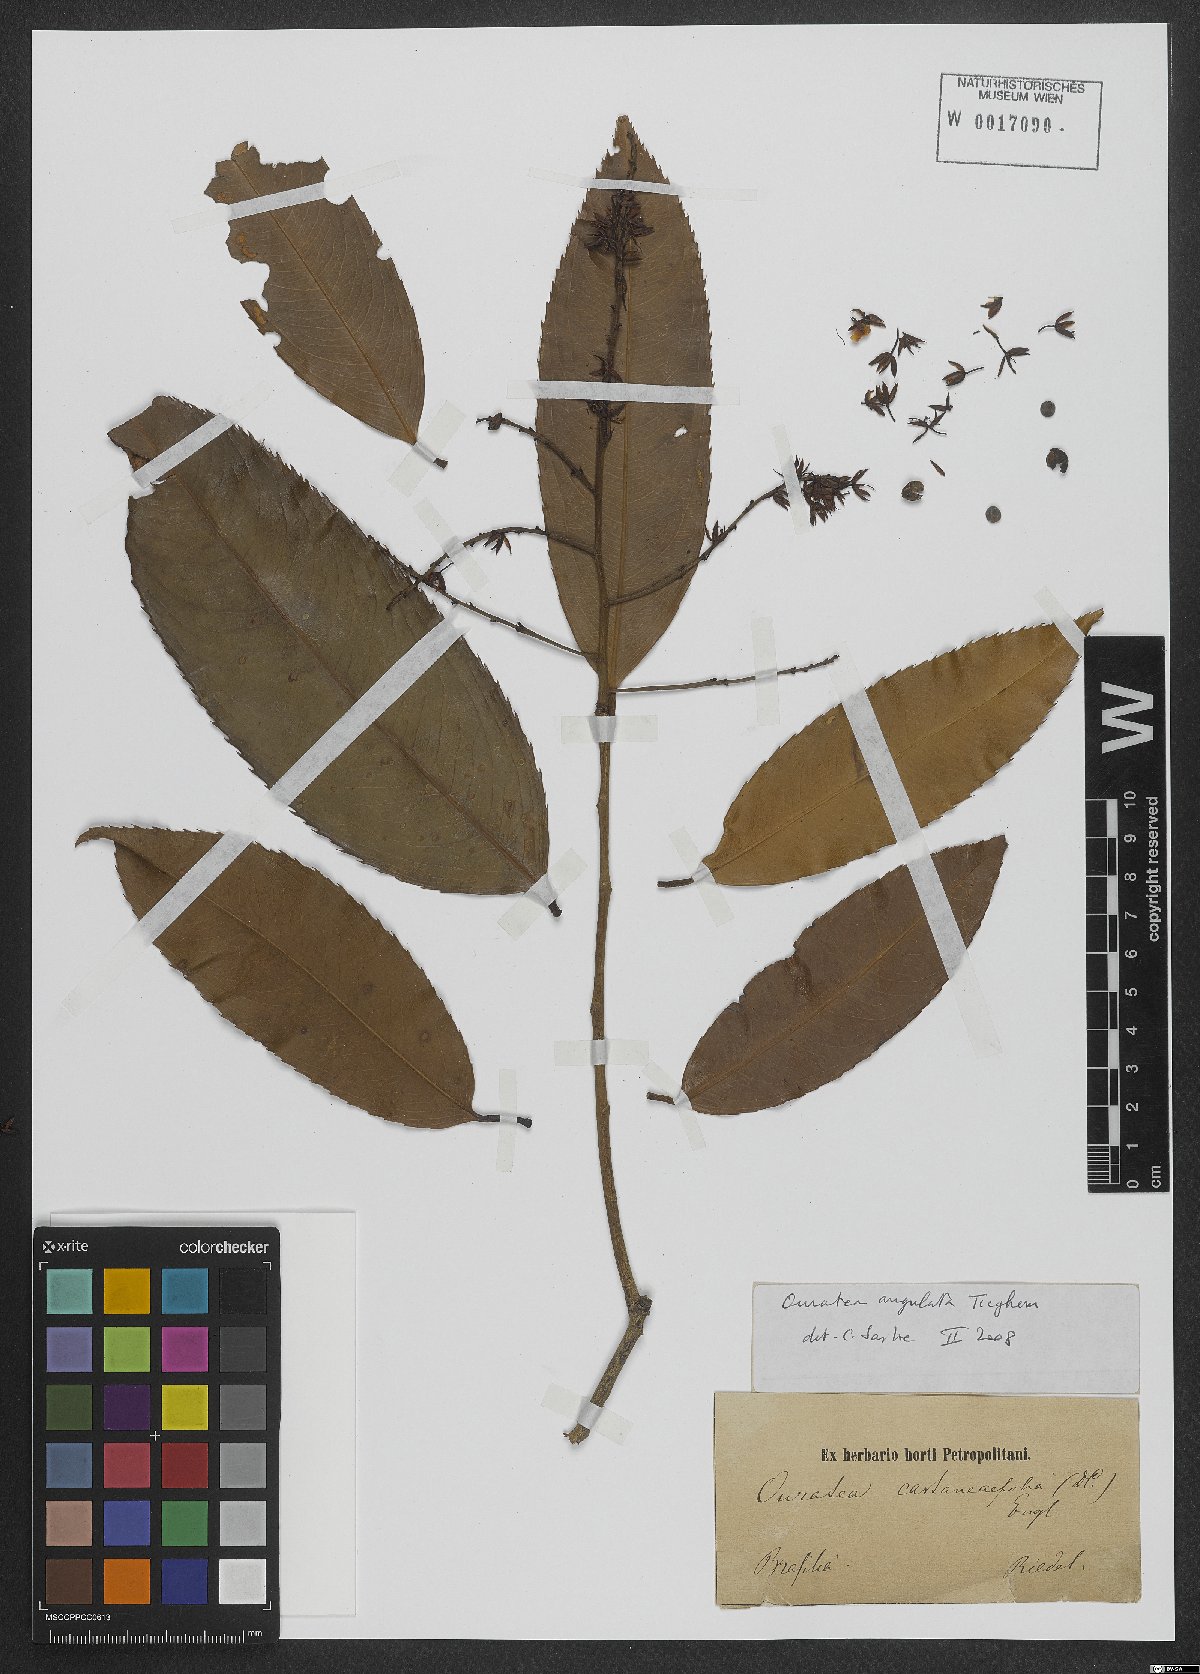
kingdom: Plantae
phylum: Tracheophyta
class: Magnoliopsida
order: Malpighiales
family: Ochnaceae
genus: Gomphia
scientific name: Gomphia obtusifolia
